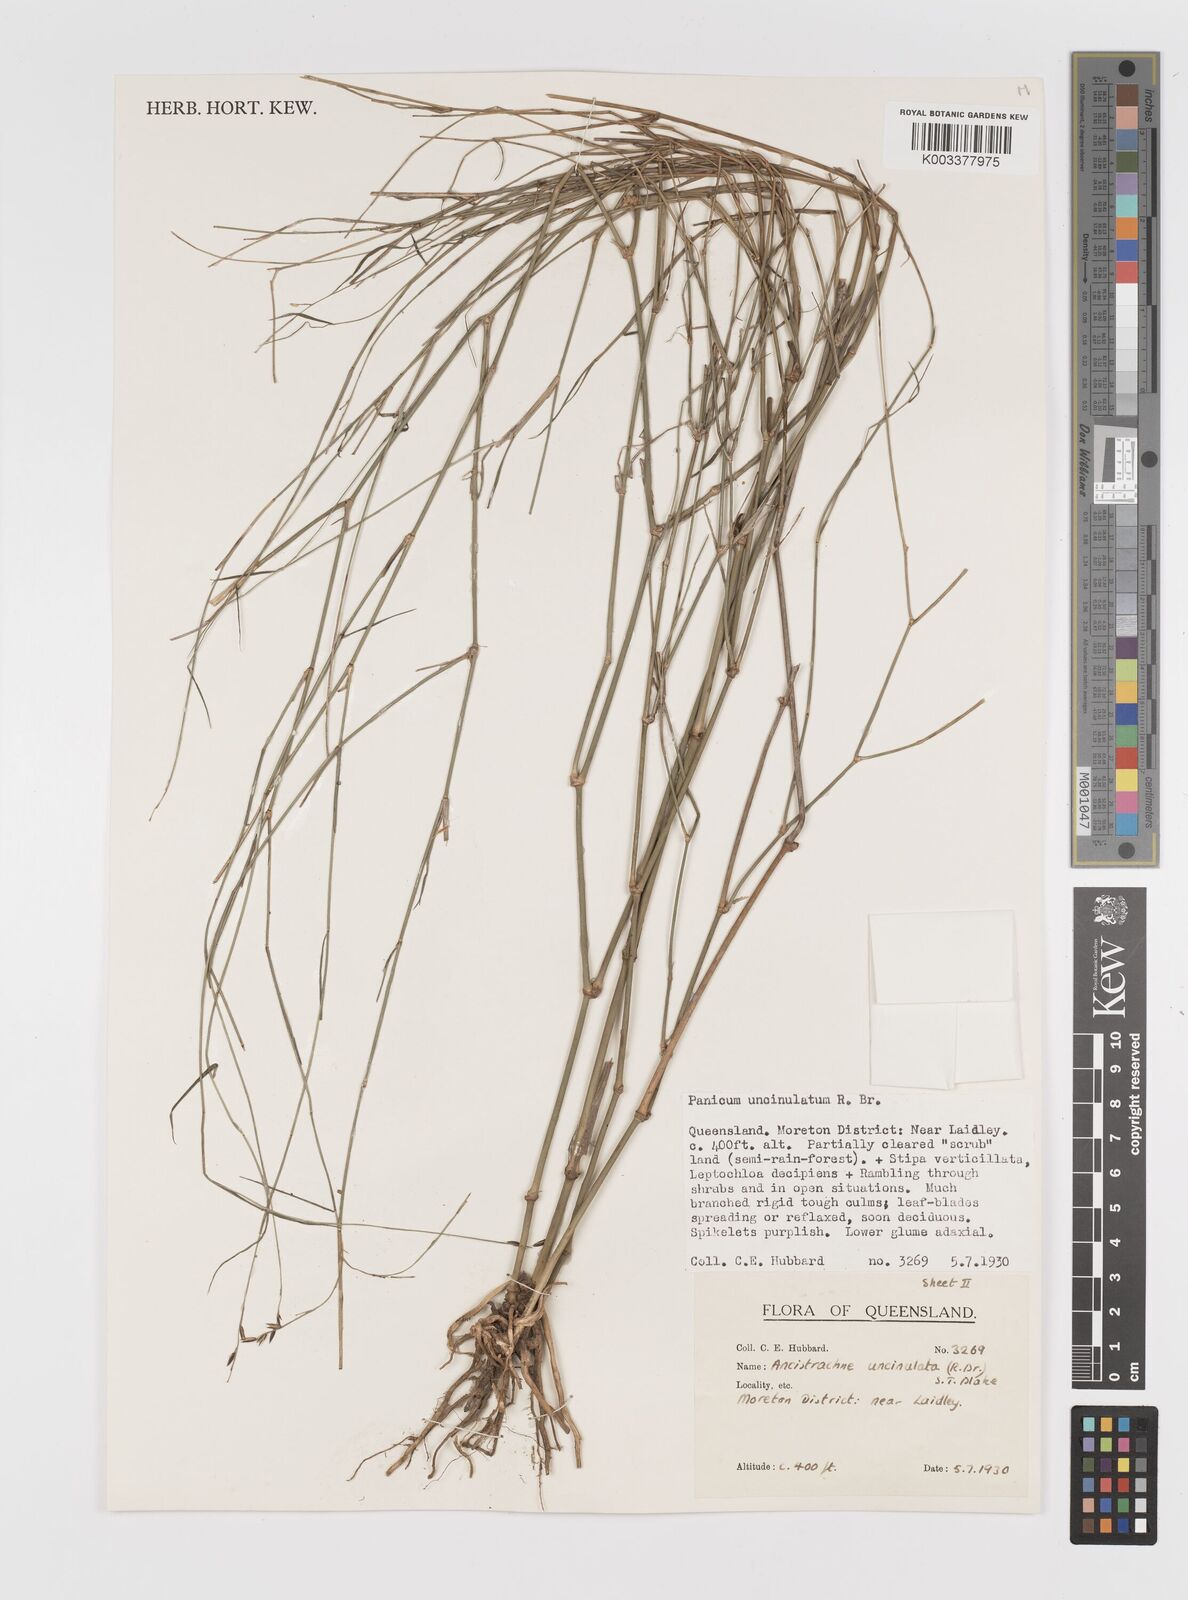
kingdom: Plantae
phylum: Tracheophyta
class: Liliopsida
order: Poales
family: Poaceae
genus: Ancistrachne
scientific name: Ancistrachne uncinulata
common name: Hooky grass
